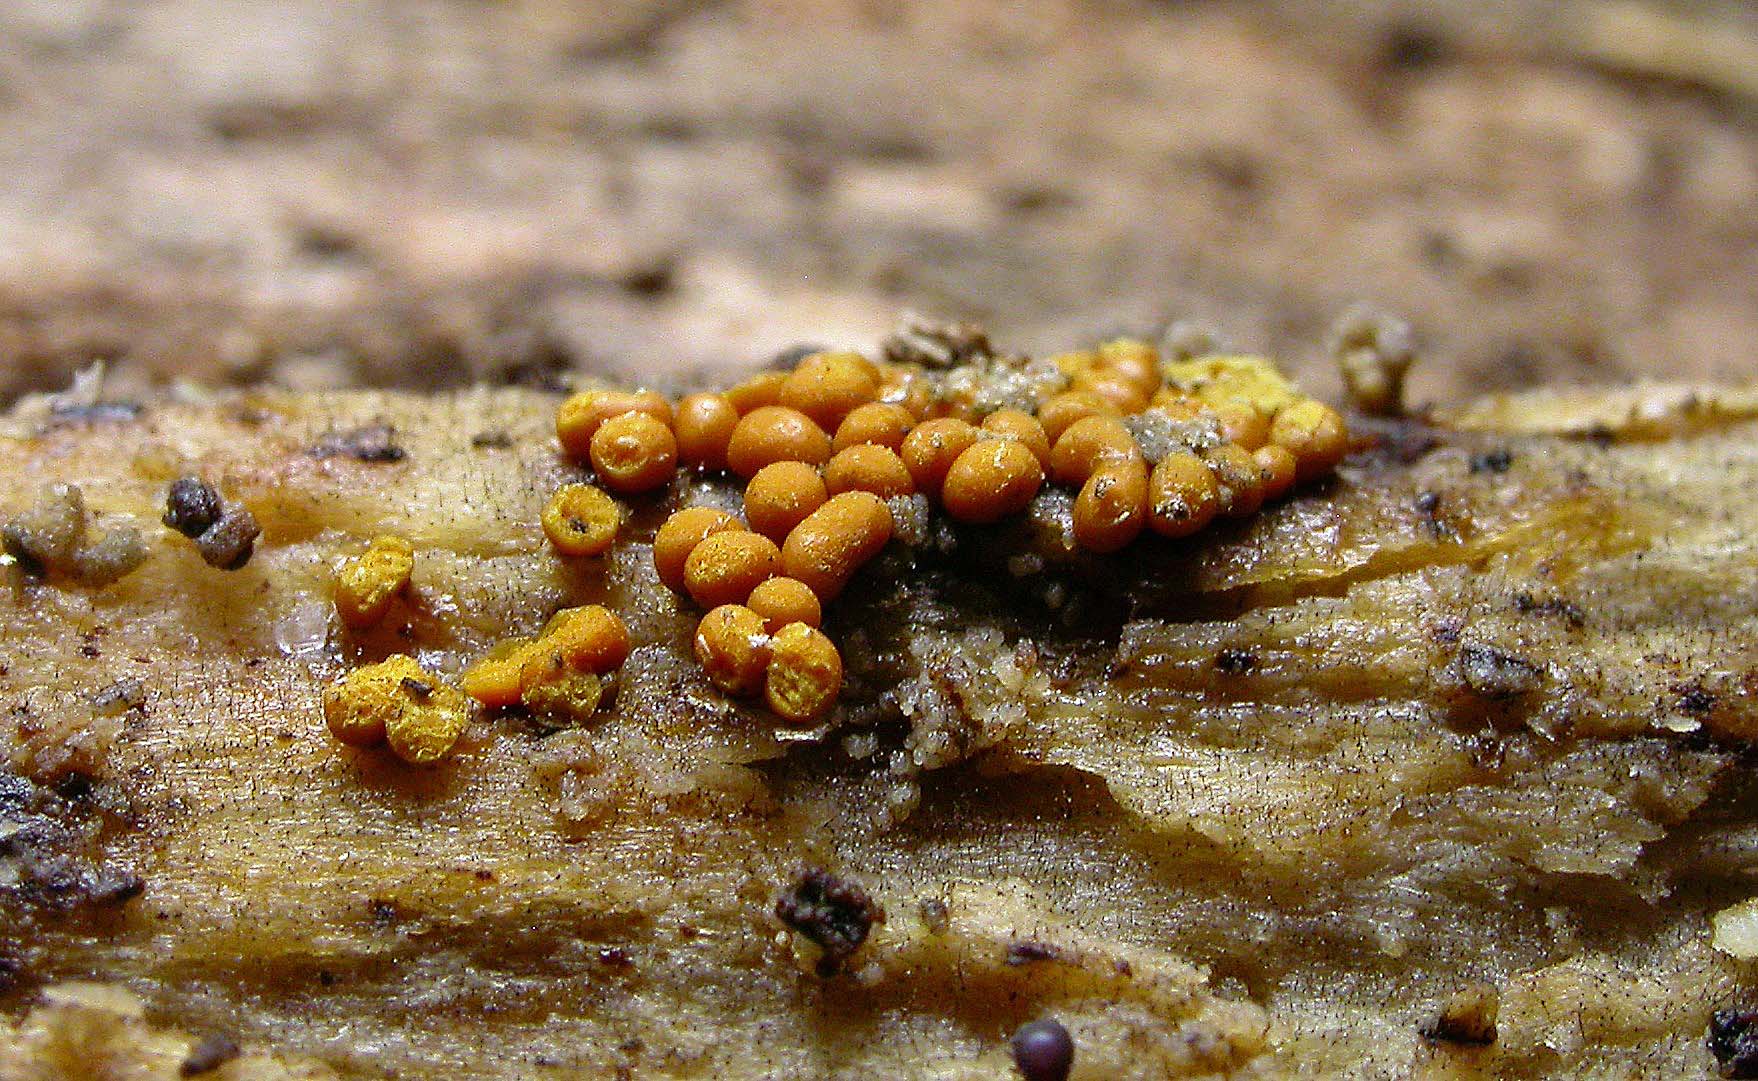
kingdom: Protozoa
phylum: Mycetozoa
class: Myxomycetes
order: Trichiales
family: Trichiaceae
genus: Trichia
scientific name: Trichia varia
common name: foranderlig hårbold
